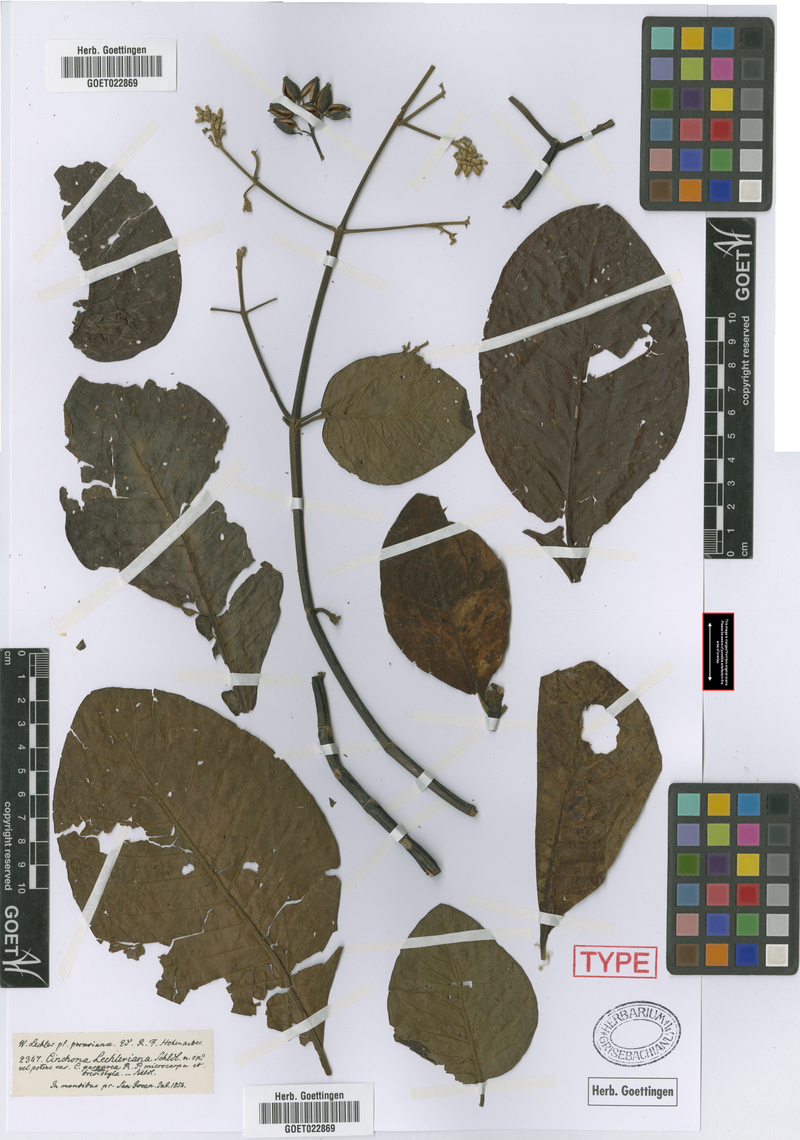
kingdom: Plantae
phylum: Tracheophyta
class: Magnoliopsida
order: Gentianales
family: Rubiaceae
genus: Cinchona
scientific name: Cinchona pubescens
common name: Quinine
